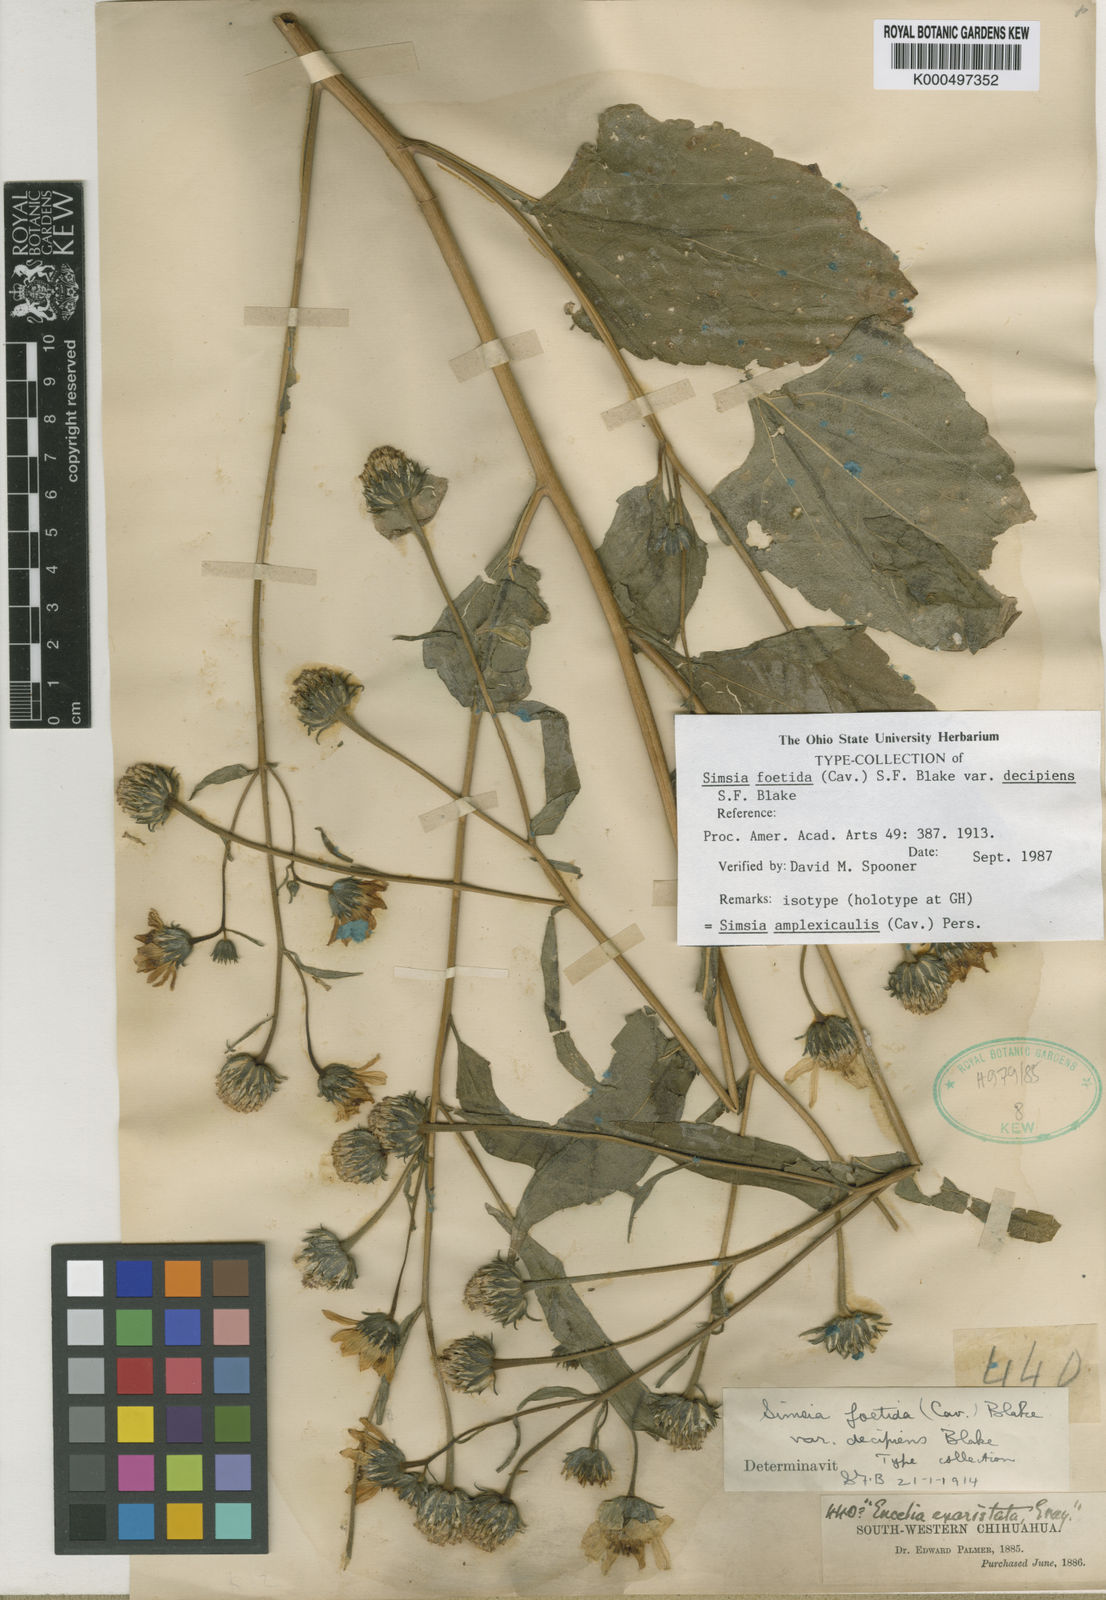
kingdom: Plantae
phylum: Tracheophyta
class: Magnoliopsida
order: Asterales
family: Asteraceae
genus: Simsia
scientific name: Simsia amplexicaulis
